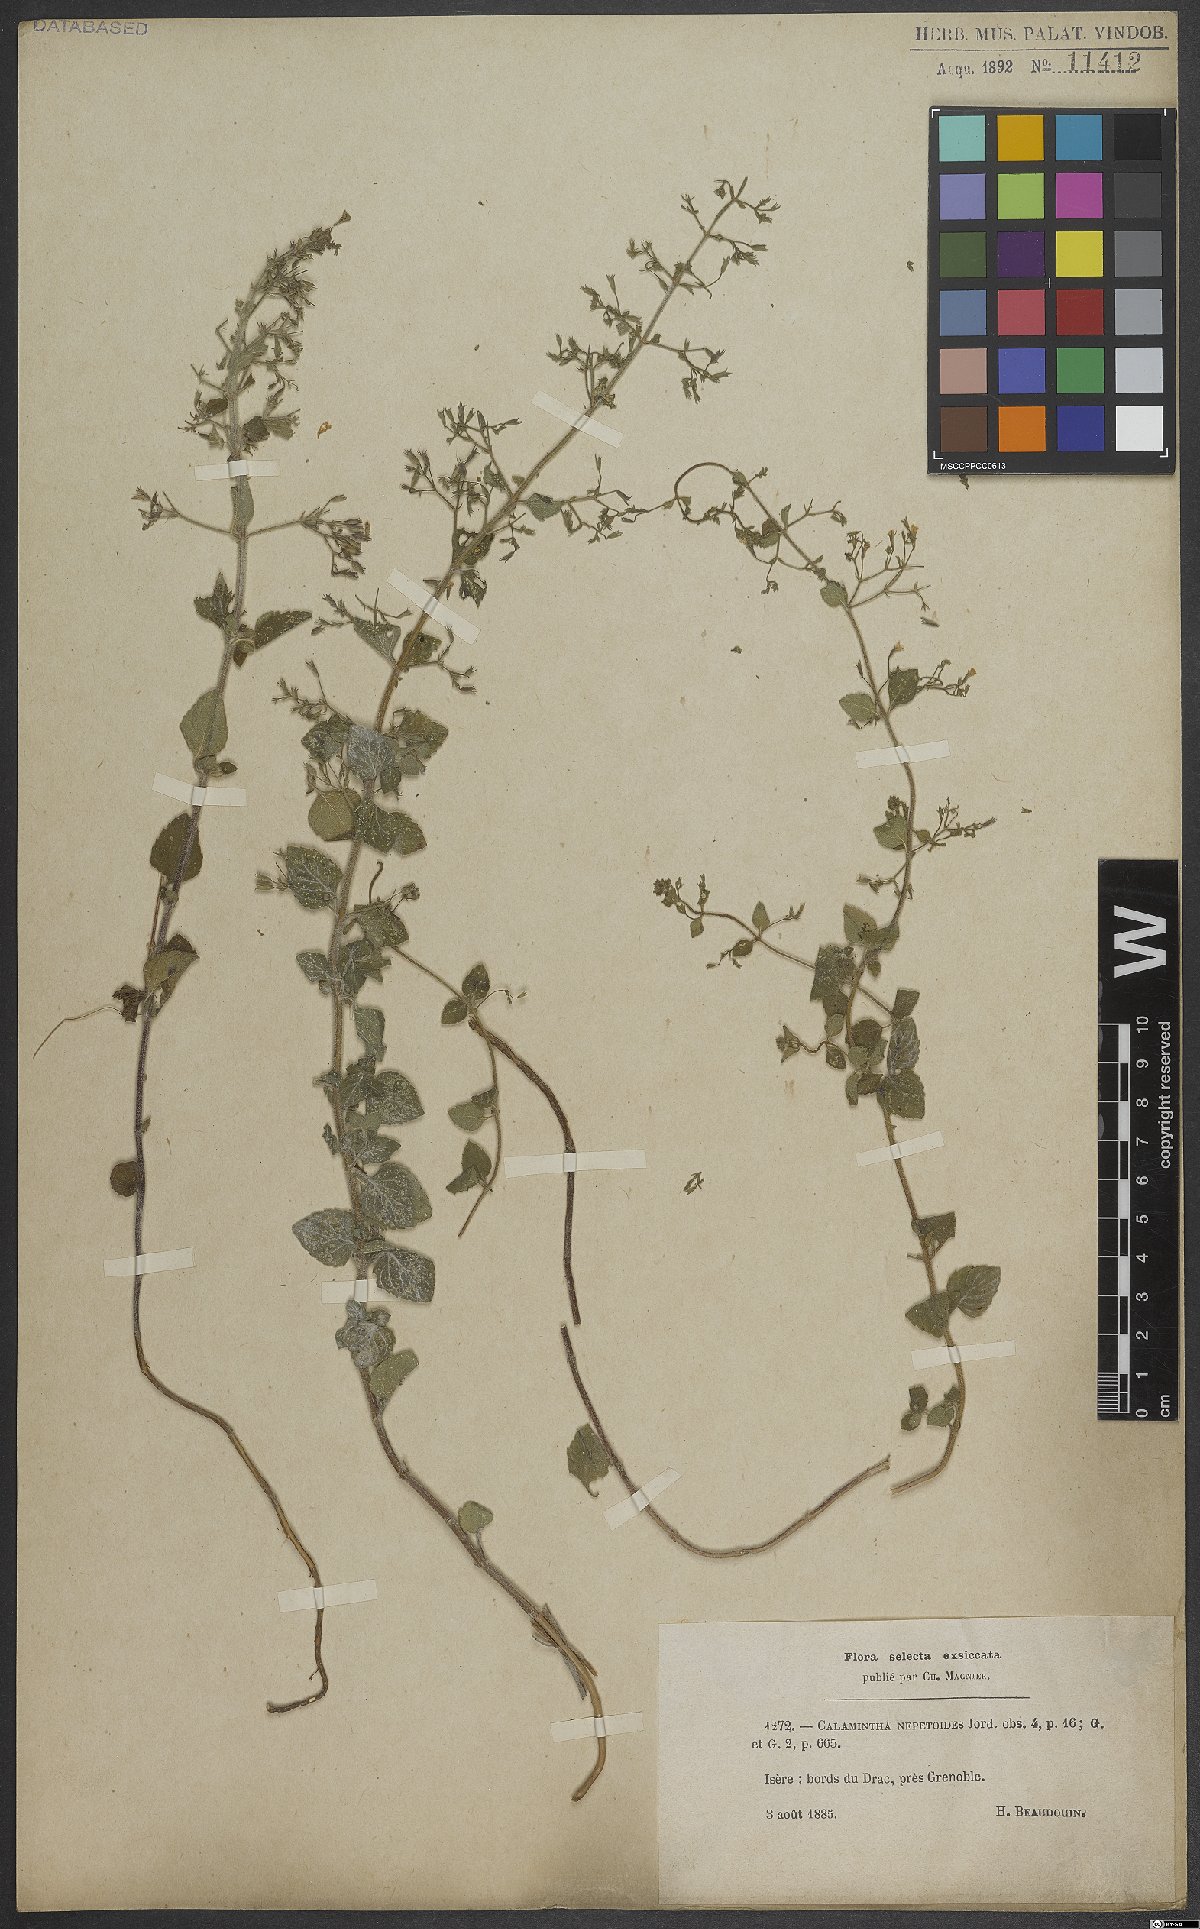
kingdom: Plantae
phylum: Tracheophyta
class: Magnoliopsida
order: Lamiales
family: Lamiaceae
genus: Clinopodium
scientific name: Clinopodium nepeta
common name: Lesser calamint
